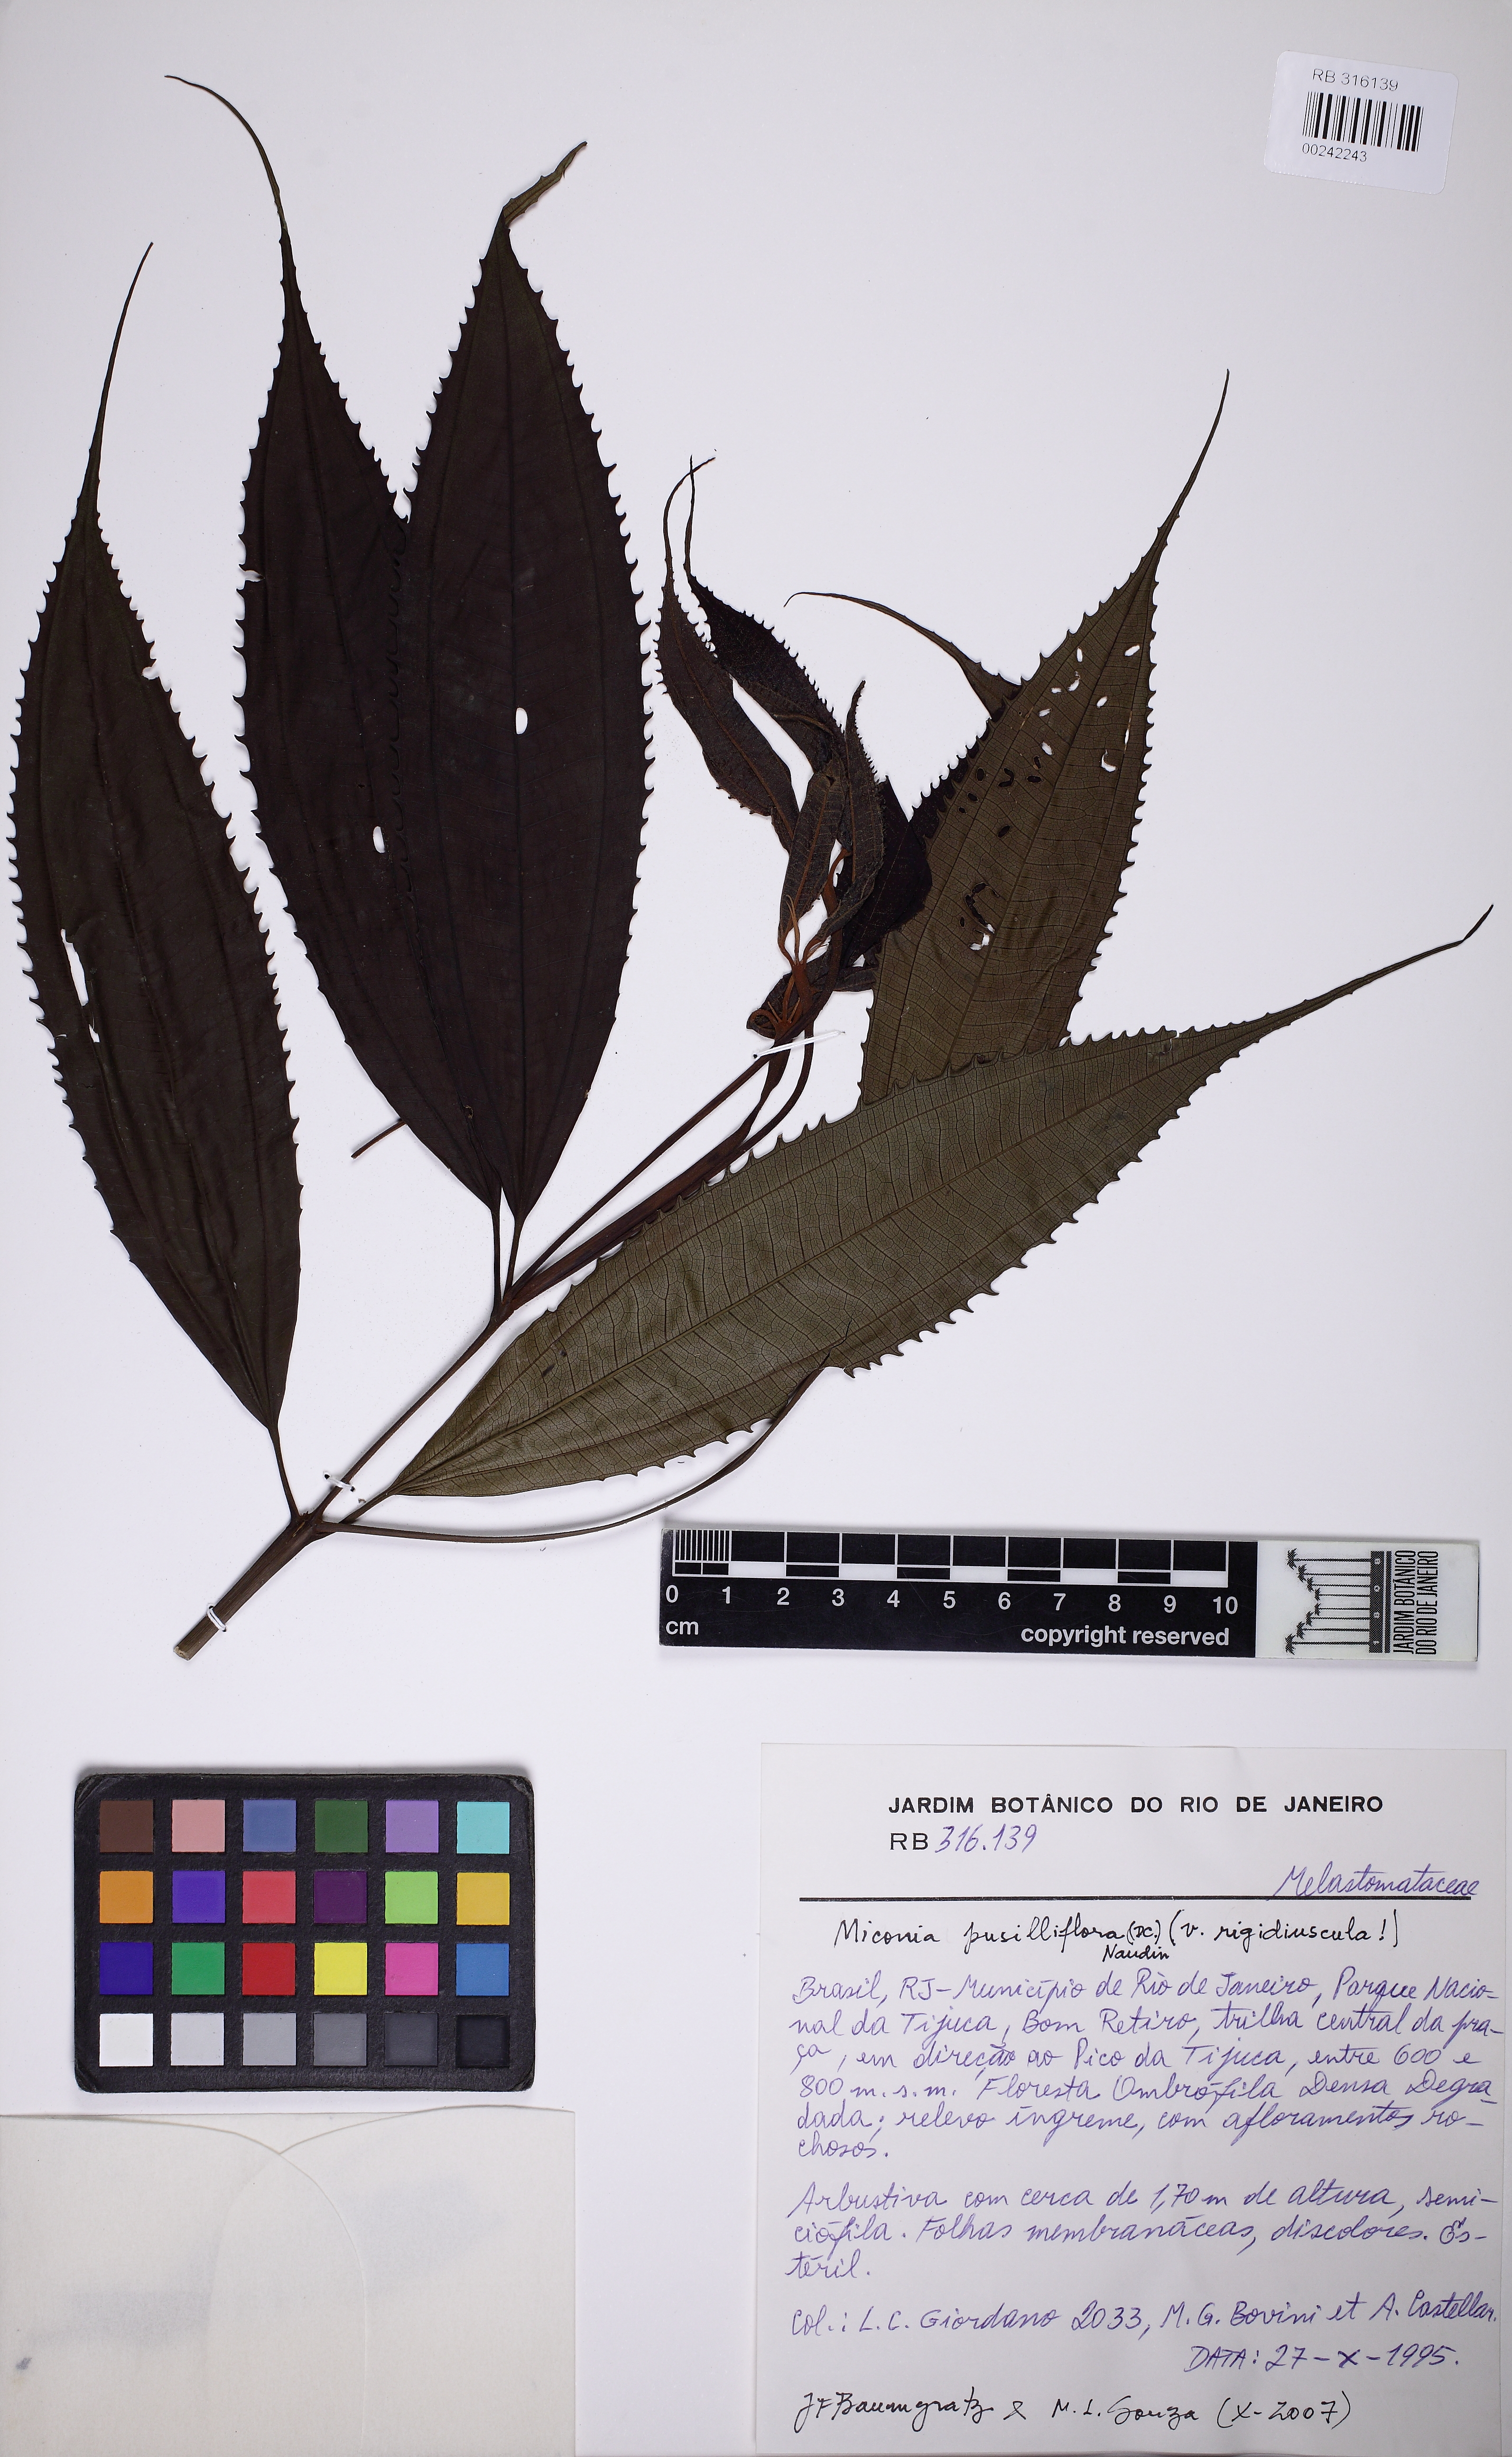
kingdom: Plantae
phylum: Tracheophyta
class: Magnoliopsida
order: Myrtales
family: Melastomataceae
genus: Miconia
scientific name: Miconia pusilliflora
